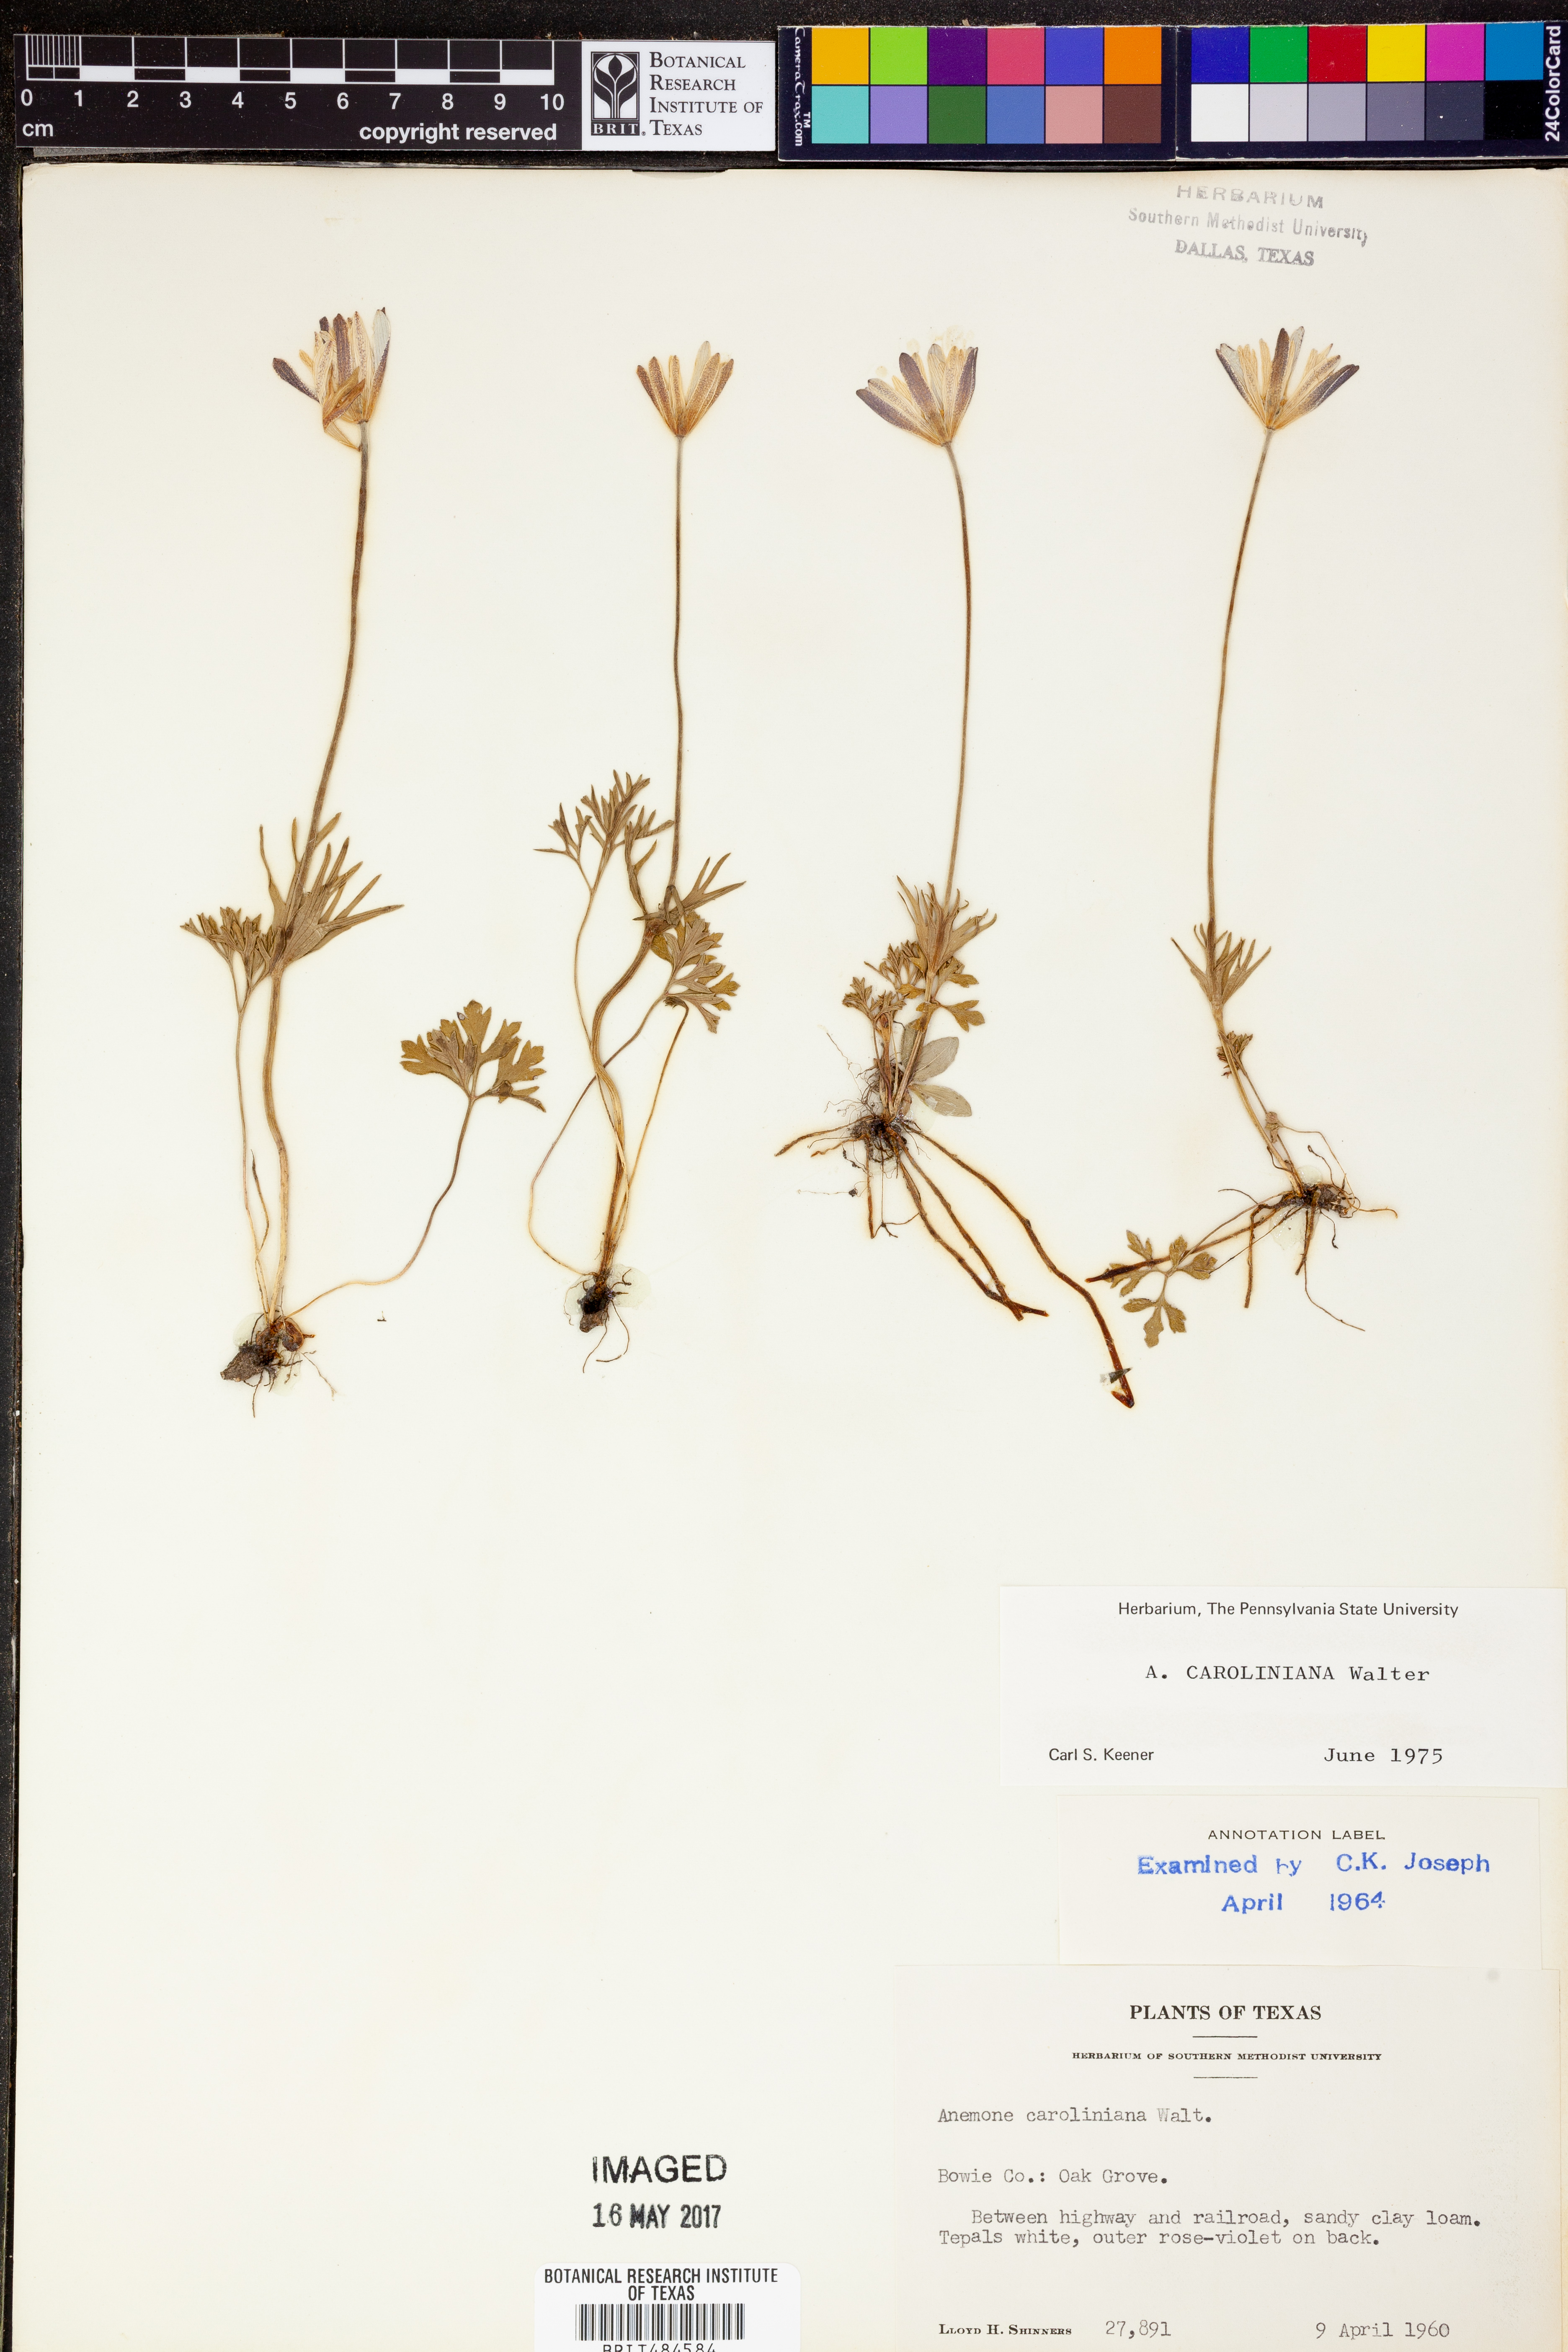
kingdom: Plantae
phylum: Tracheophyta
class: Magnoliopsida
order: Ranunculales
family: Ranunculaceae
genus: Anemone
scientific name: Anemone caroliniana
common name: Carolina anemone
